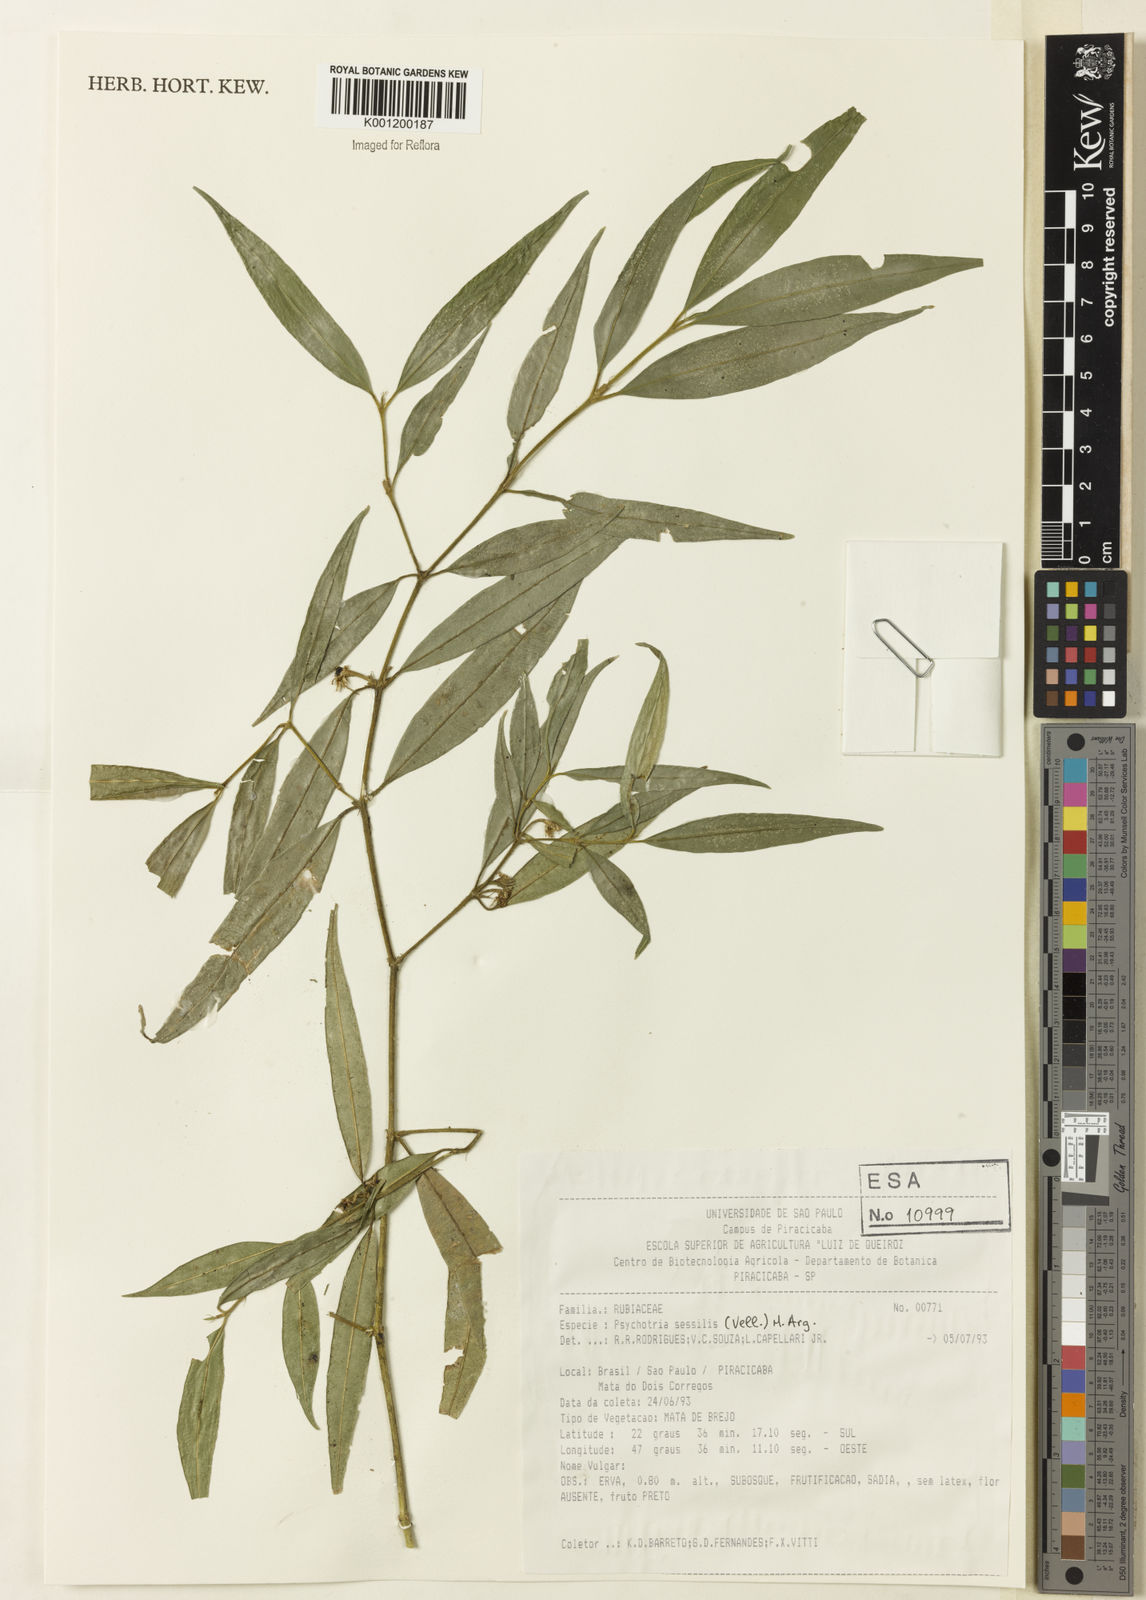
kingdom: Plantae
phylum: Tracheophyta
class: Magnoliopsida
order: Gentianales
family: Rubiaceae
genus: Rudgea
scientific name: Rudgea sessilis
